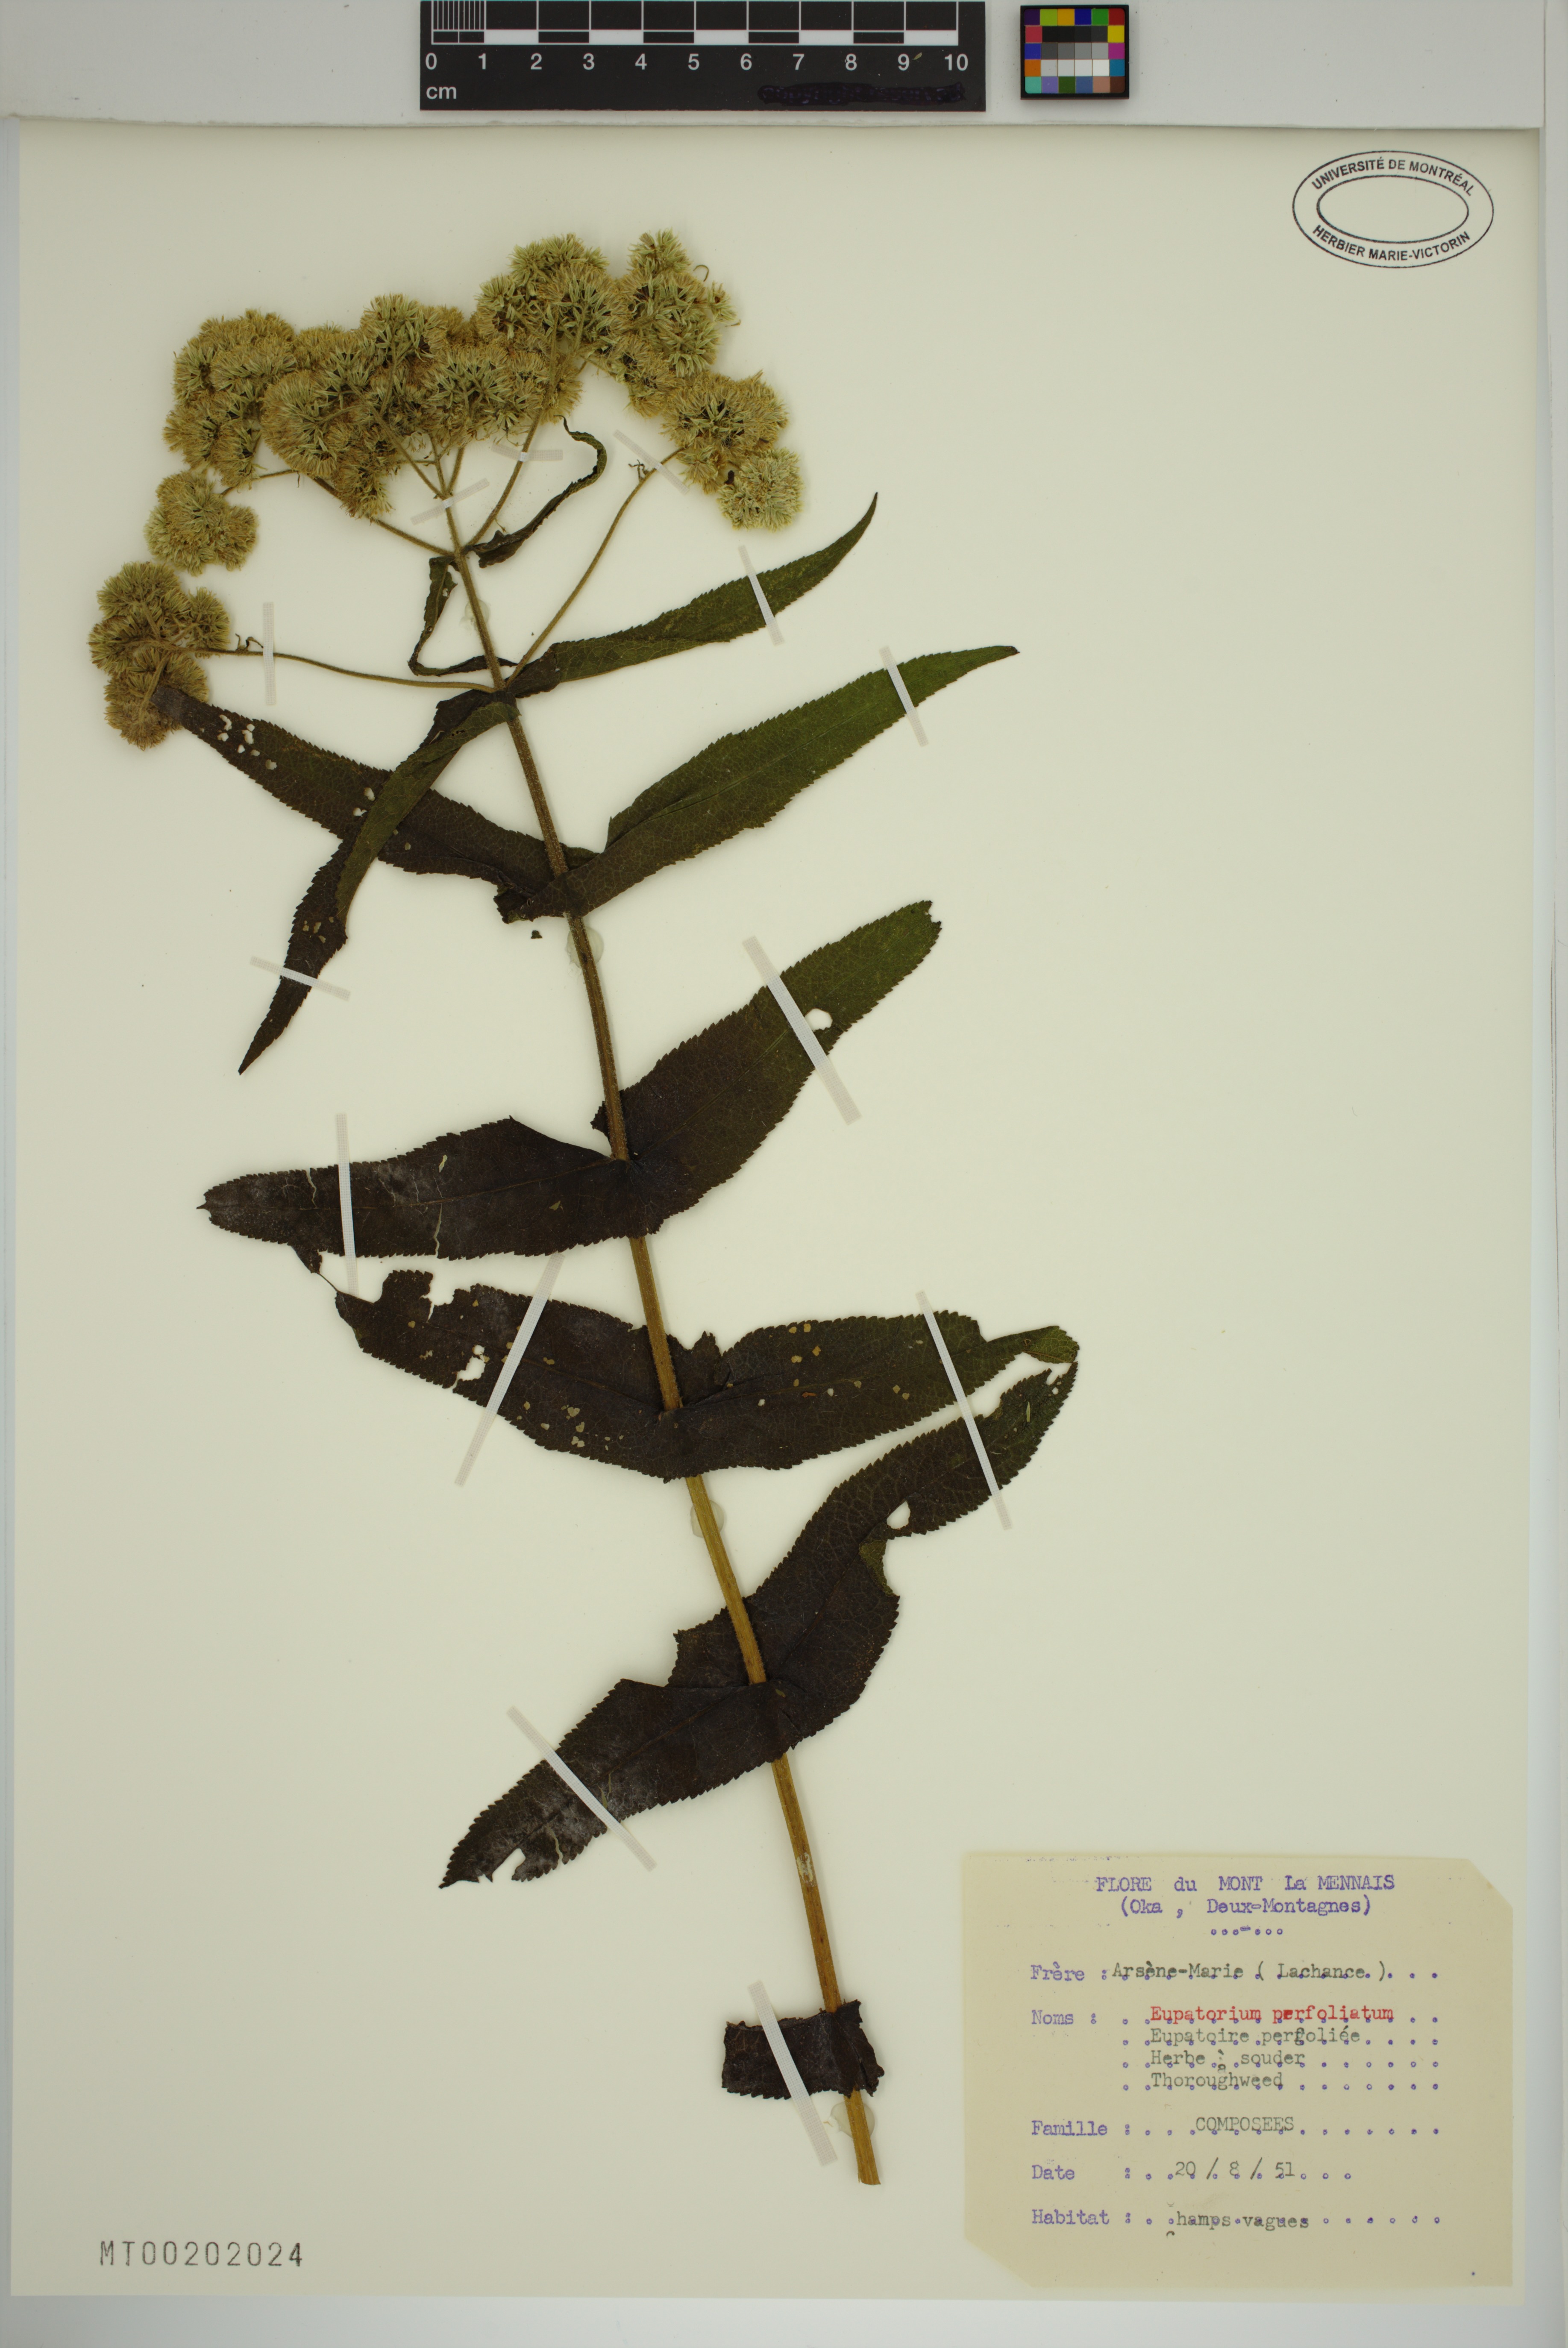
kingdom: Plantae
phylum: Tracheophyta
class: Magnoliopsida
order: Asterales
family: Asteraceae
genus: Eupatorium
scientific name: Eupatorium perfoliatum
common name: Boneset
